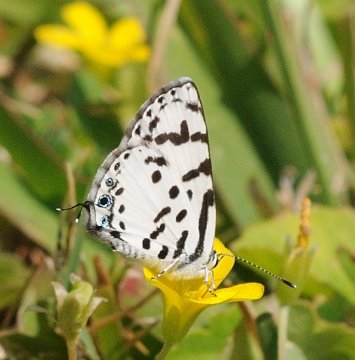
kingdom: Animalia
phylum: Arthropoda
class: Insecta
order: Lepidoptera
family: Lycaenidae
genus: Castalius
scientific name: Castalius calice
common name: White Pie
